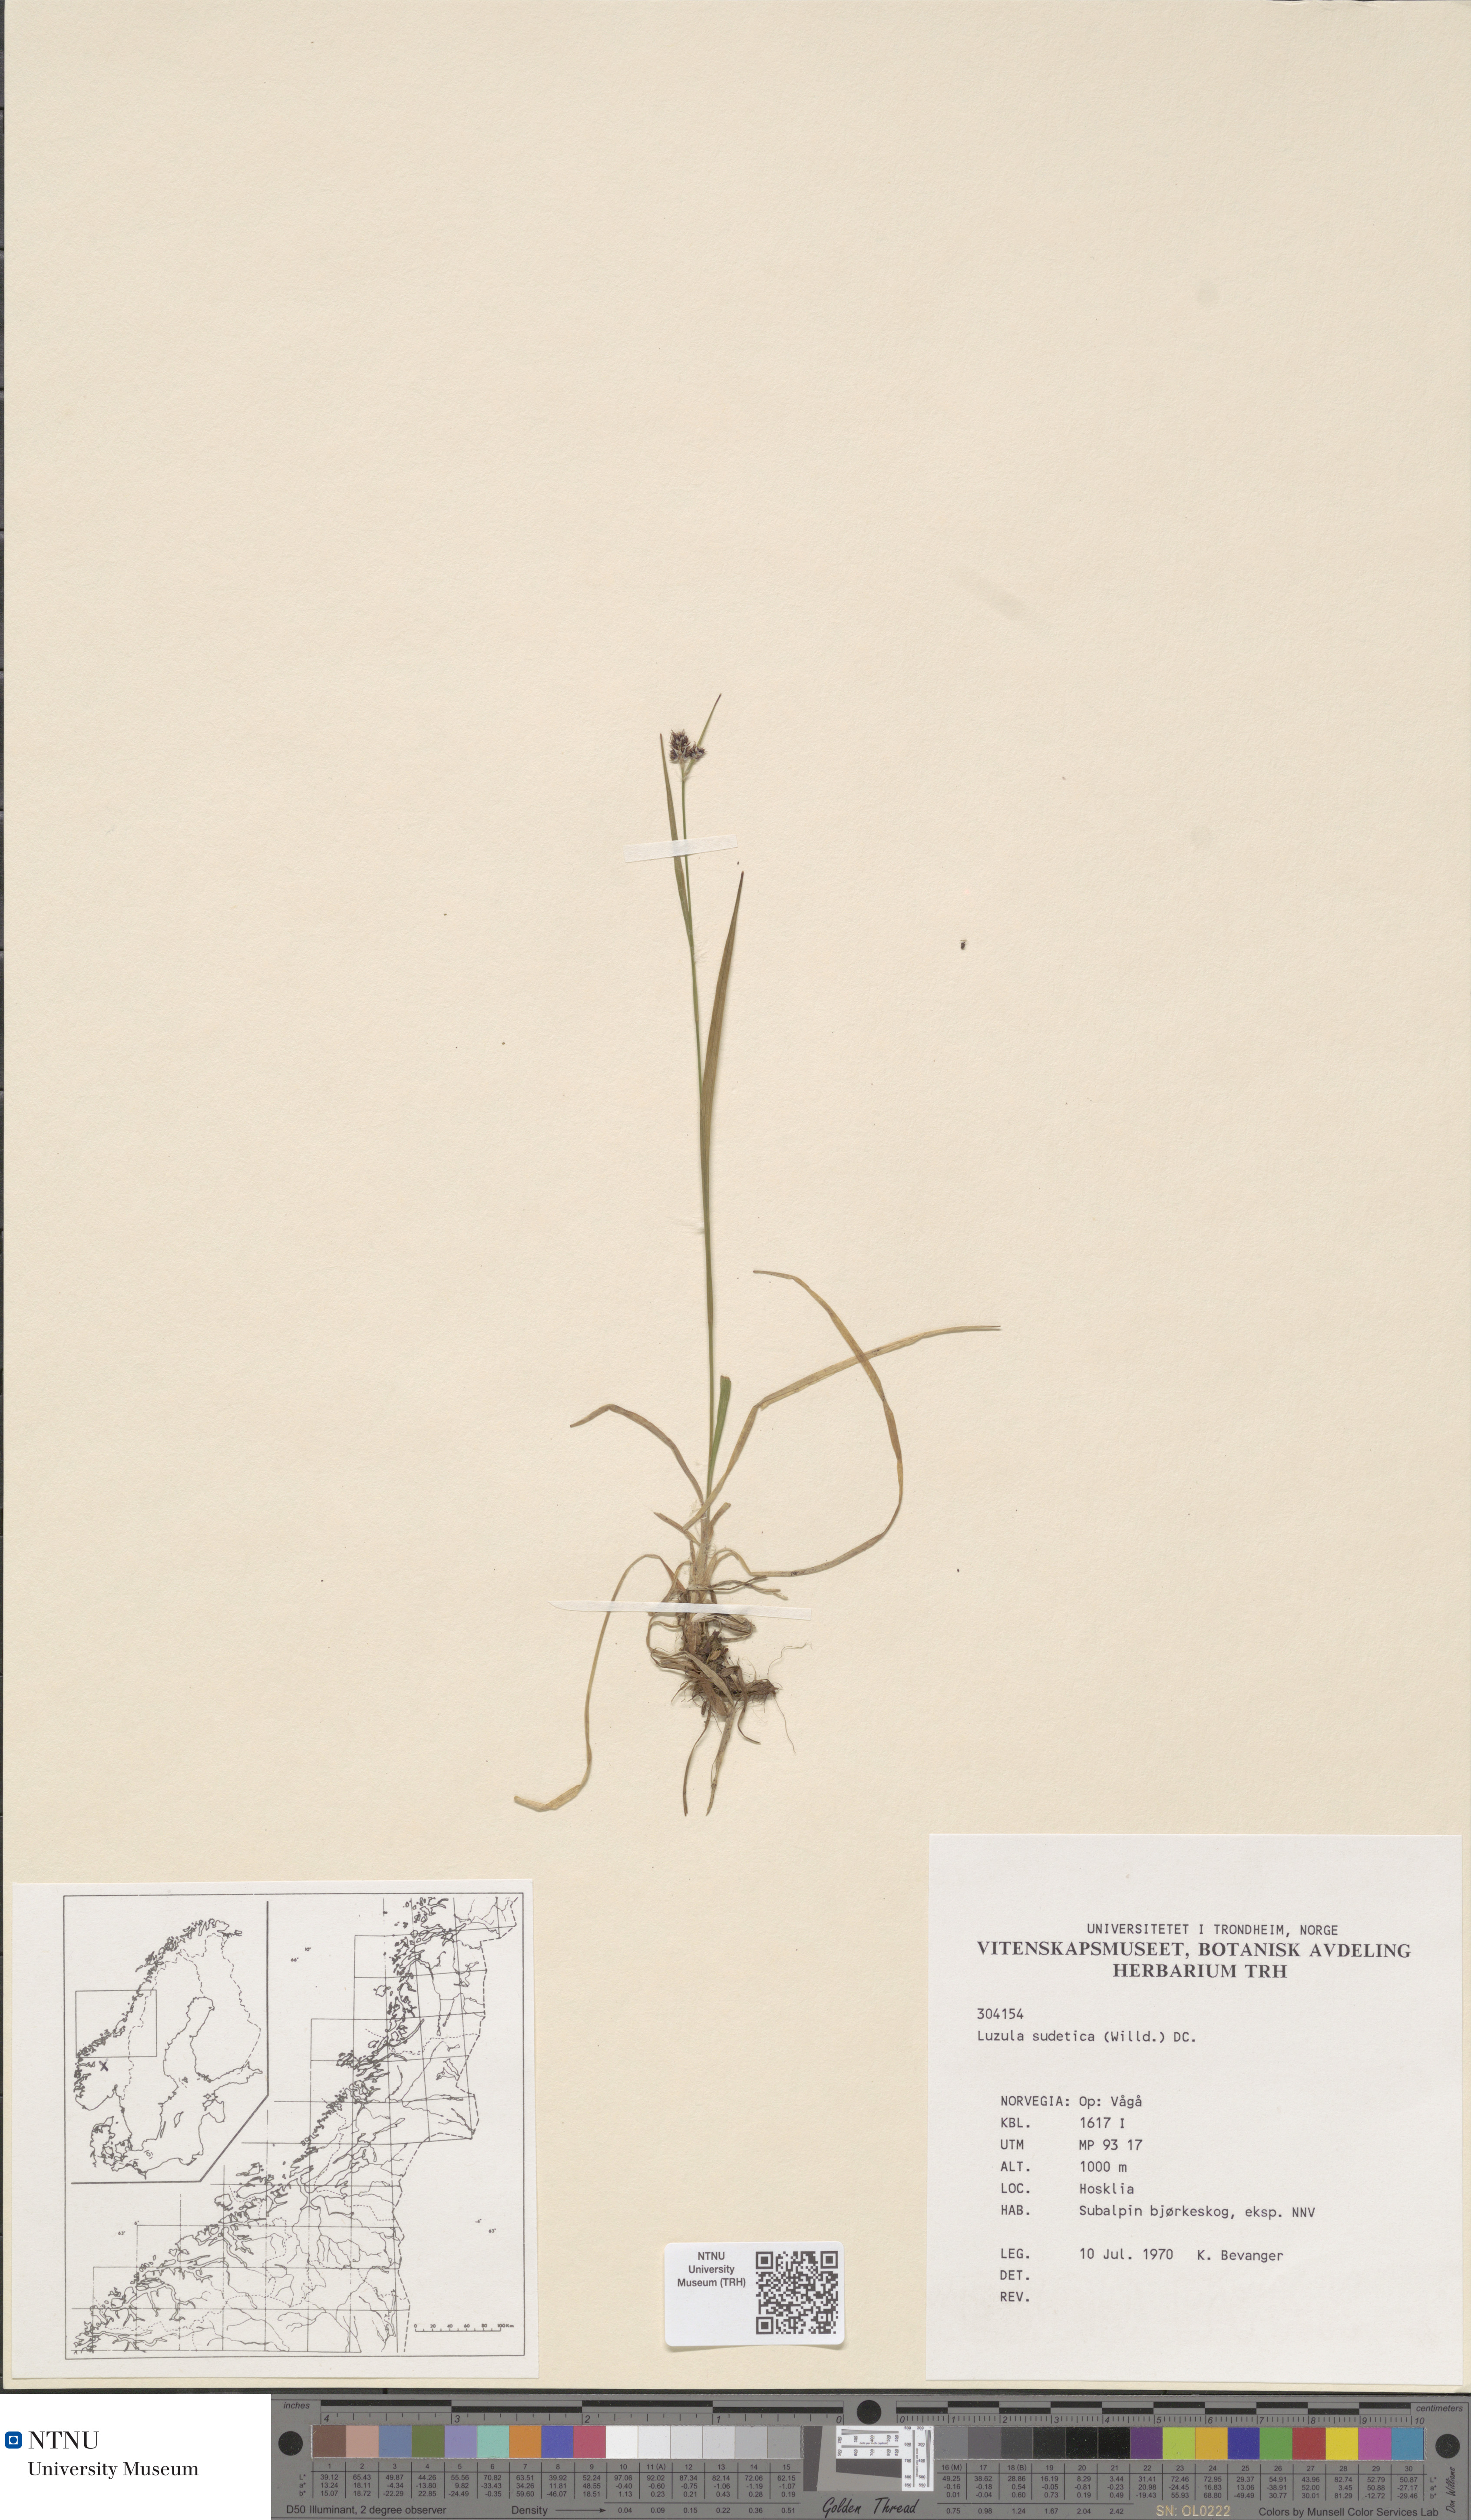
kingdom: Plantae
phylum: Tracheophyta
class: Liliopsida
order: Poales
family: Juncaceae
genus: Luzula
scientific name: Luzula sudetica
